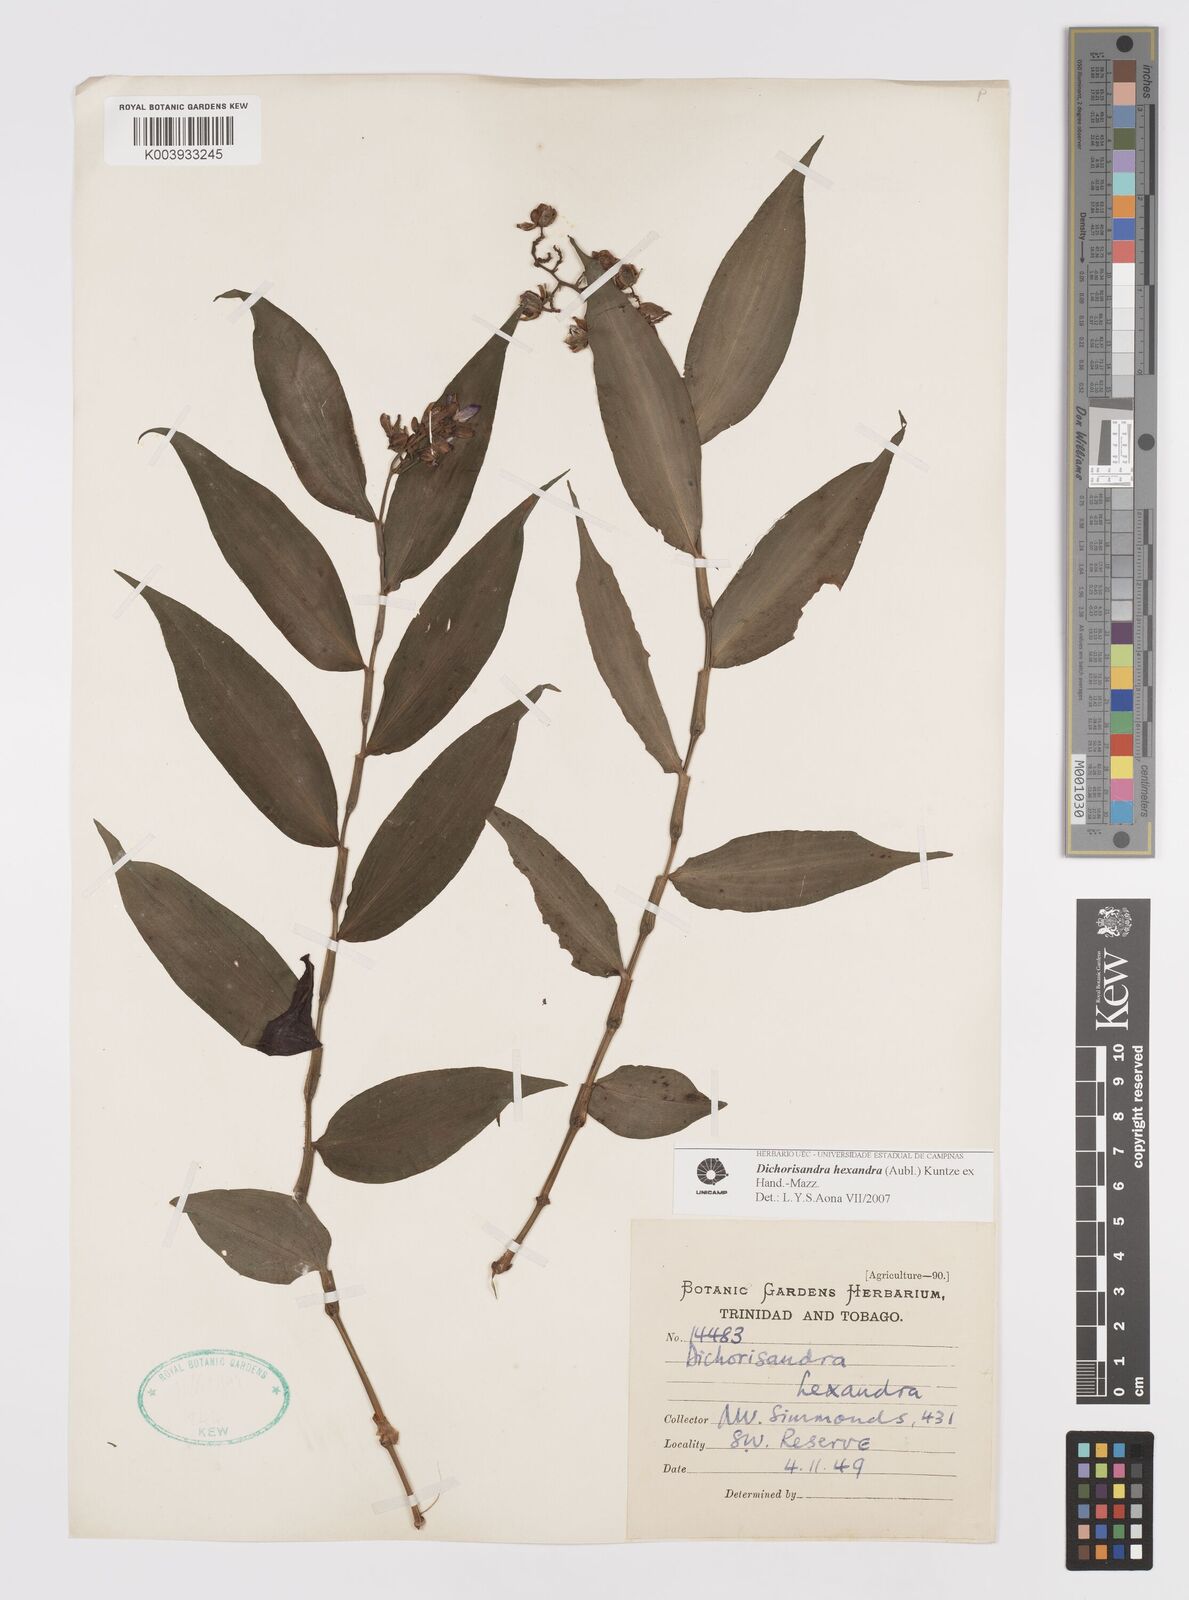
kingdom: Plantae
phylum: Tracheophyta
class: Liliopsida
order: Commelinales
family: Commelinaceae
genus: Dichorisandra
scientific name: Dichorisandra hexandra
